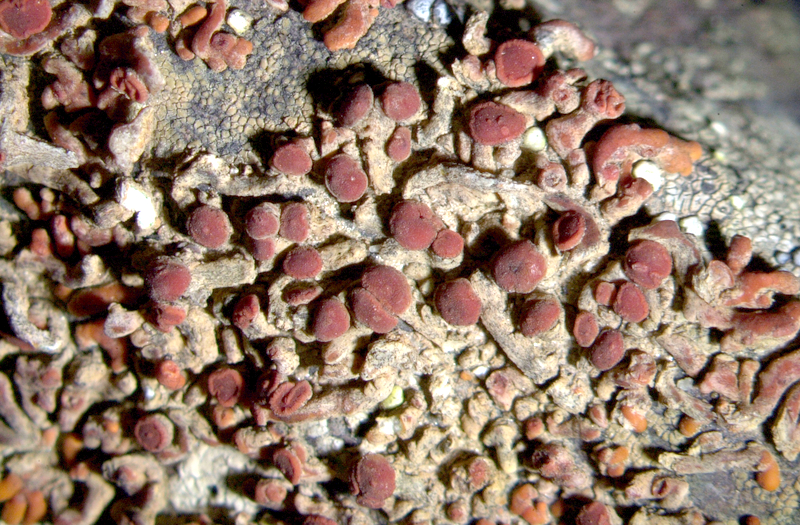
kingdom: Fungi
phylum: Ascomycota
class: Lecanoromycetes
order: Teloschistales
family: Teloschistaceae
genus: Stellarangia
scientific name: Stellarangia elegantissima
